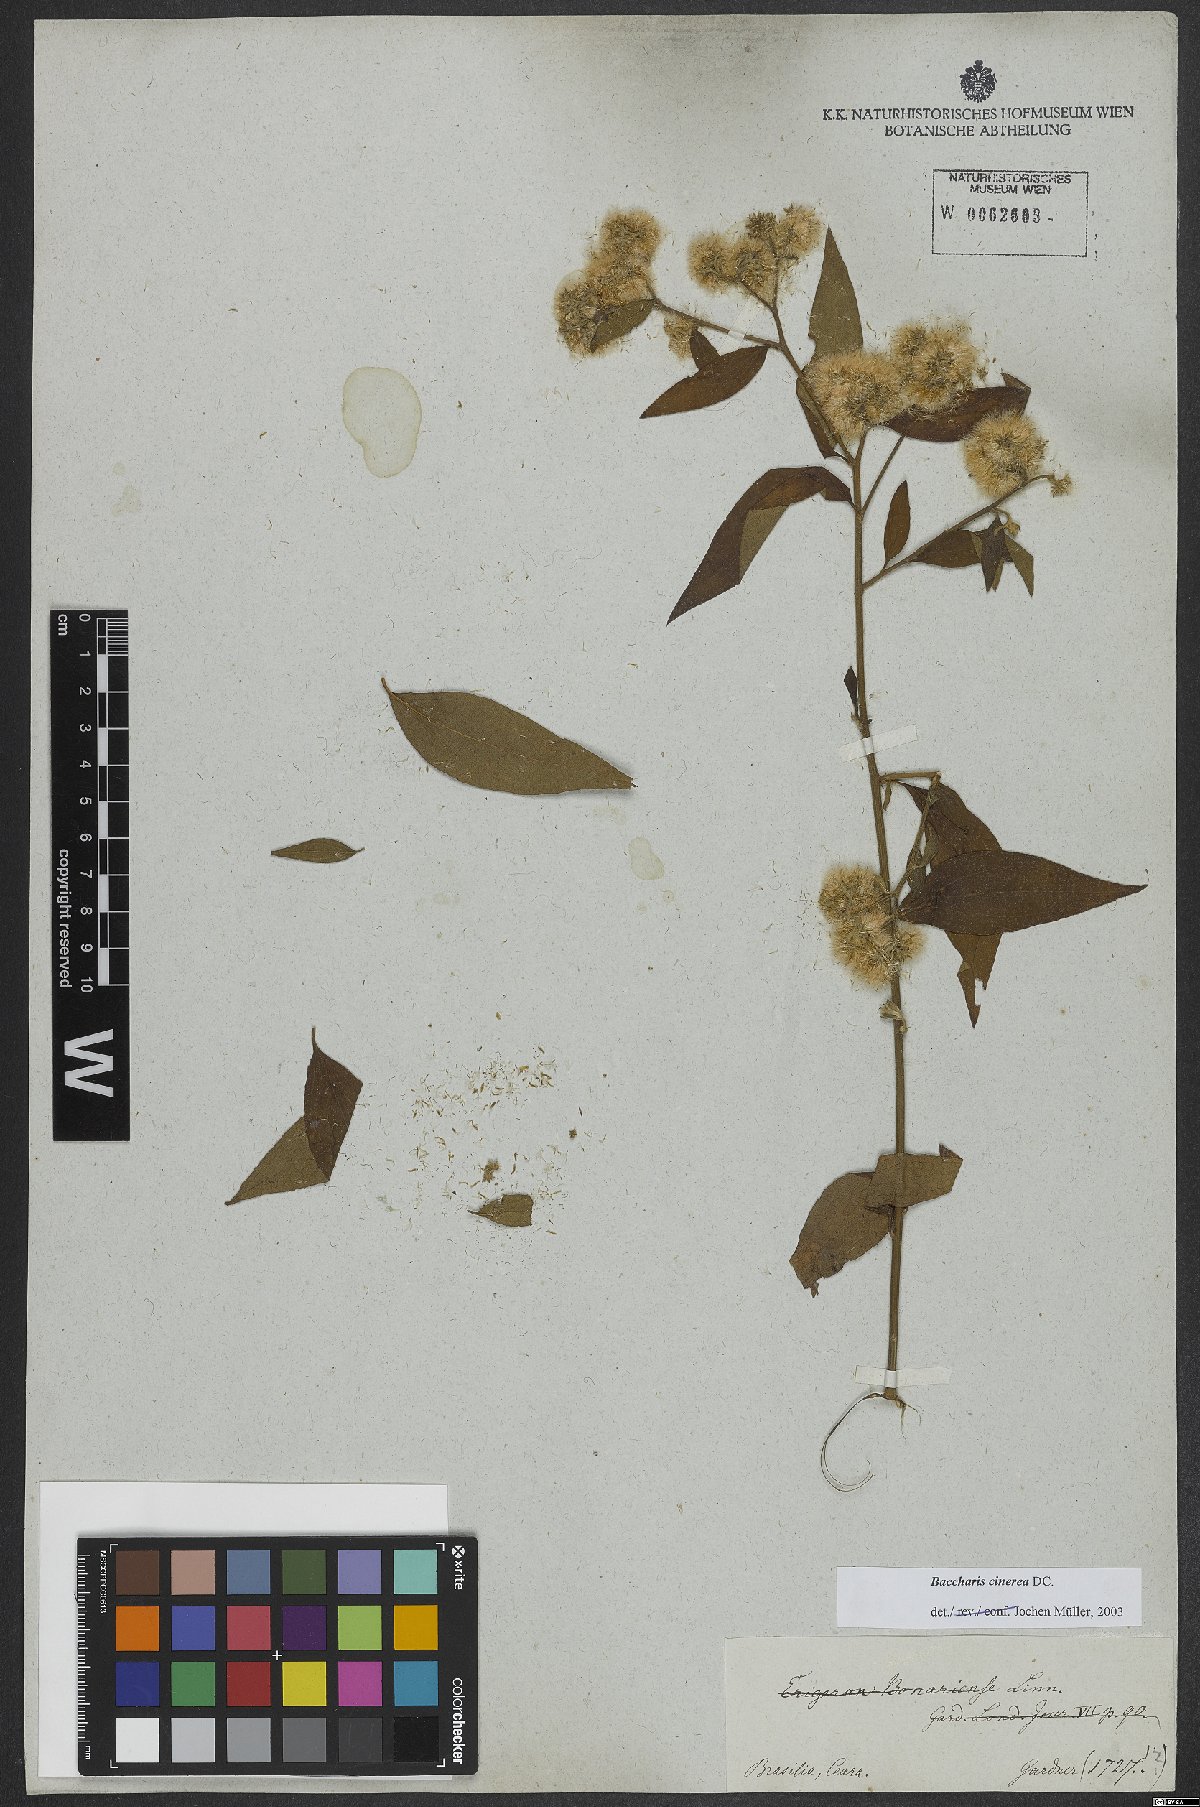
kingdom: Plantae
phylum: Tracheophyta
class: Magnoliopsida
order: Asterales
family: Asteraceae
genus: Baccharis
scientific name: Baccharis trinervis
